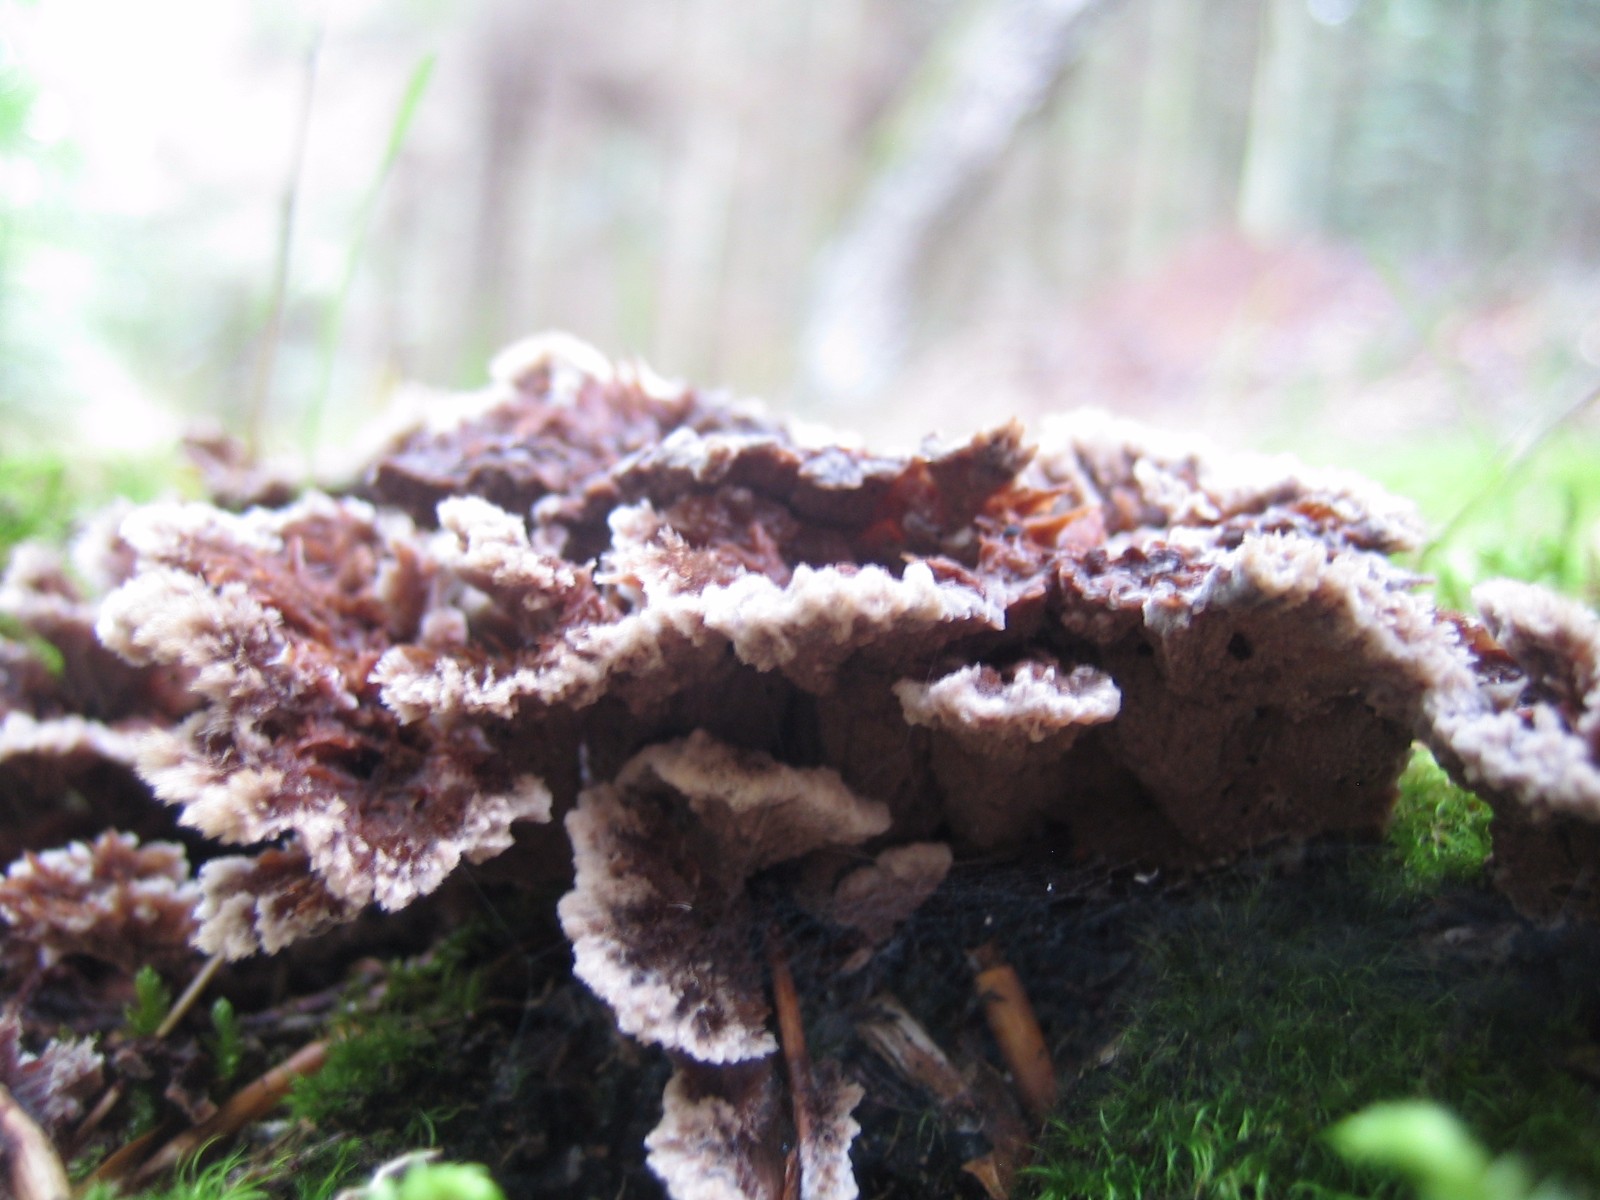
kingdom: Fungi
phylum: Basidiomycota
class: Agaricomycetes
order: Thelephorales
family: Thelephoraceae
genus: Thelephora
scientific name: Thelephora terrestris
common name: fliget frynsesvamp
